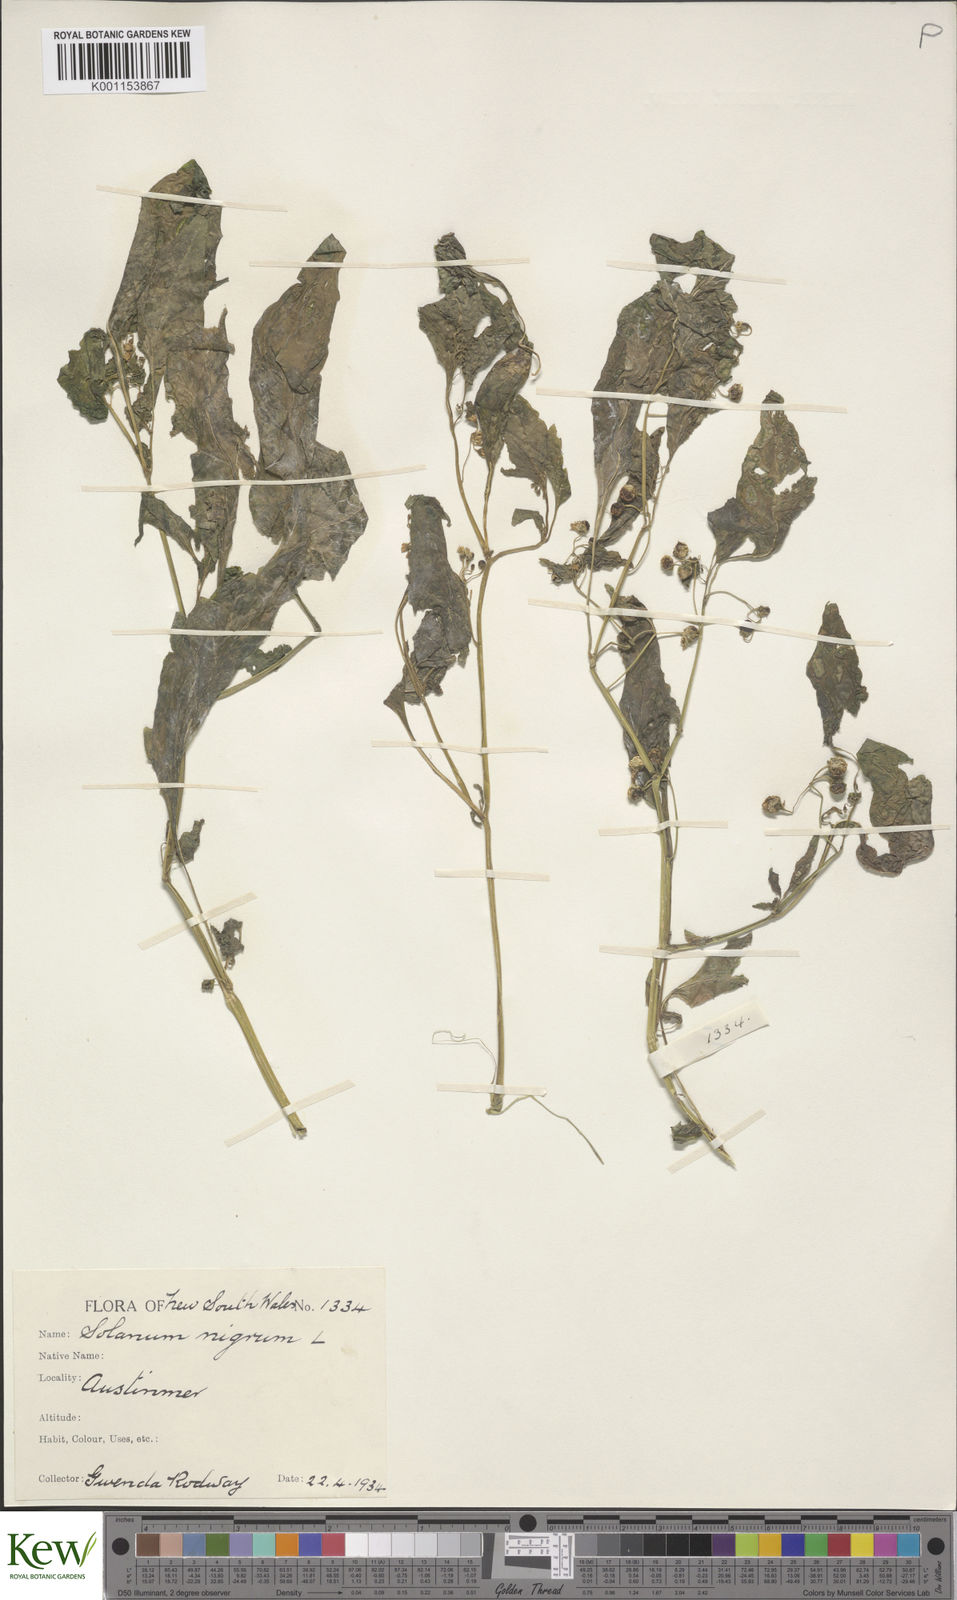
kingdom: Plantae
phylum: Tracheophyta
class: Magnoliopsida
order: Solanales
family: Solanaceae
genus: Solanum
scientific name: Solanum americanum
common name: American black nightshade
